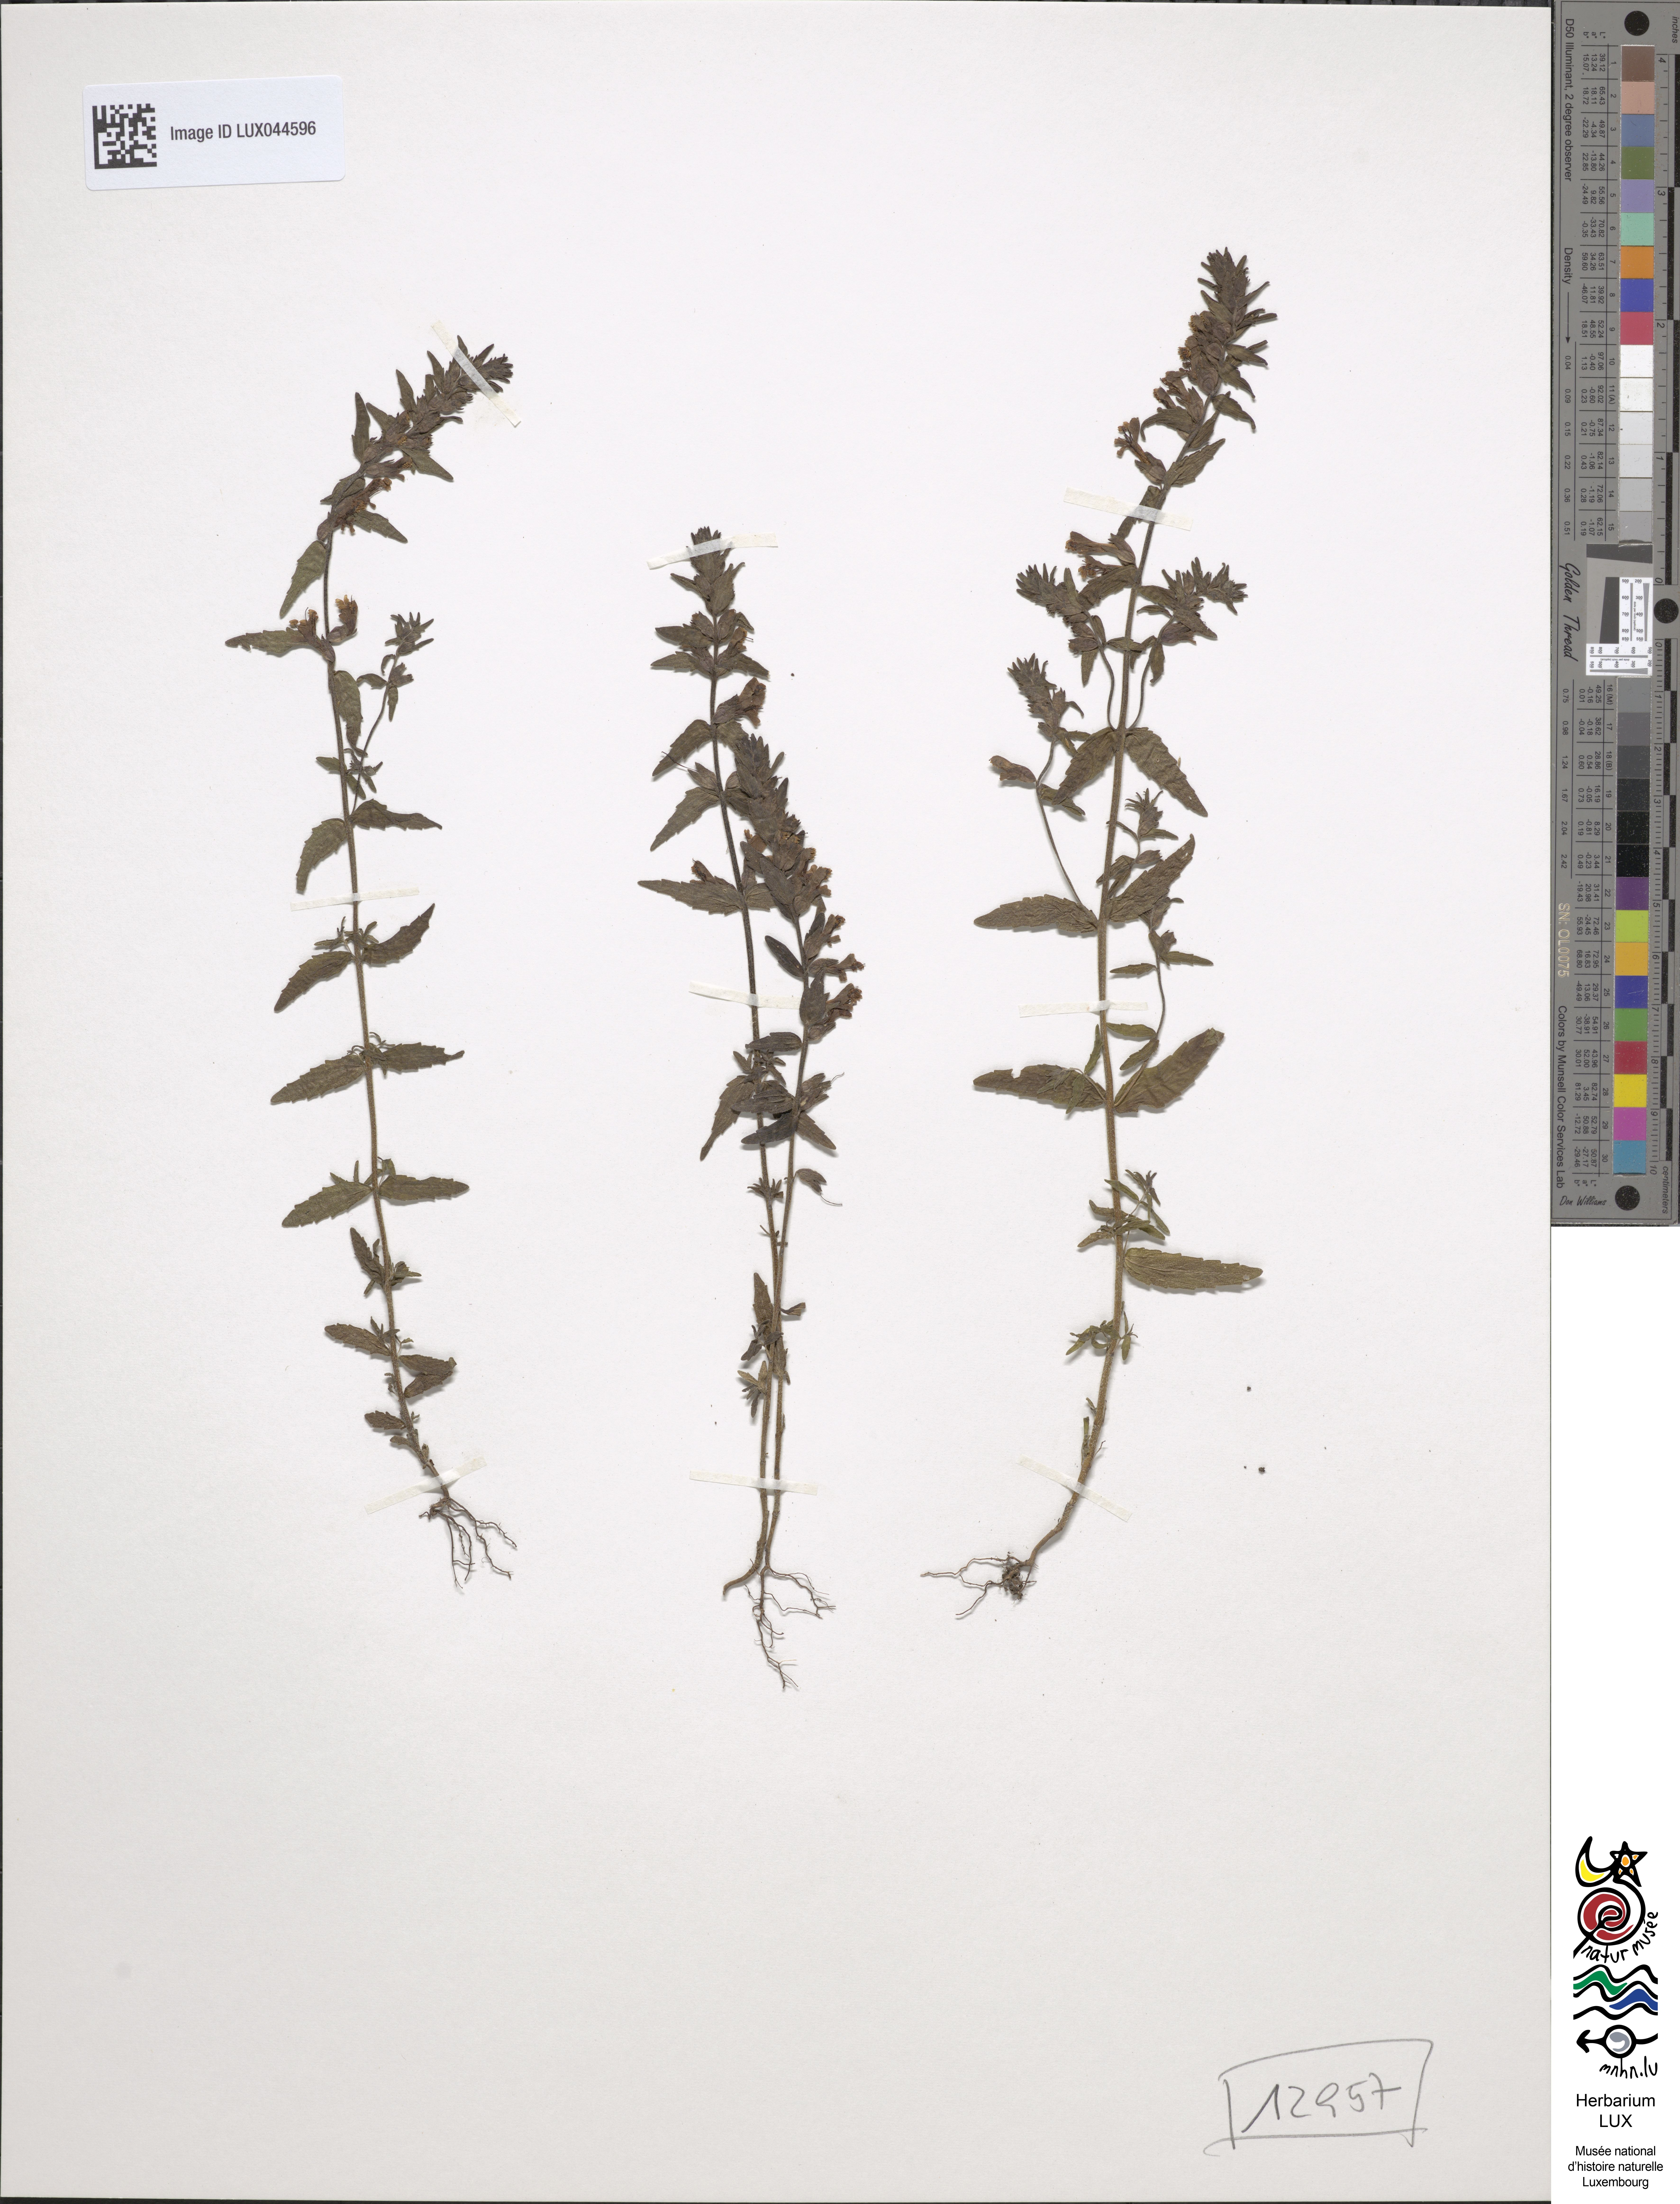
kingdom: Plantae
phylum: Tracheophyta
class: Magnoliopsida
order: Lamiales
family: Orobanchaceae
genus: Odontites
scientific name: Odontites vulgaris
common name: Broomrape
